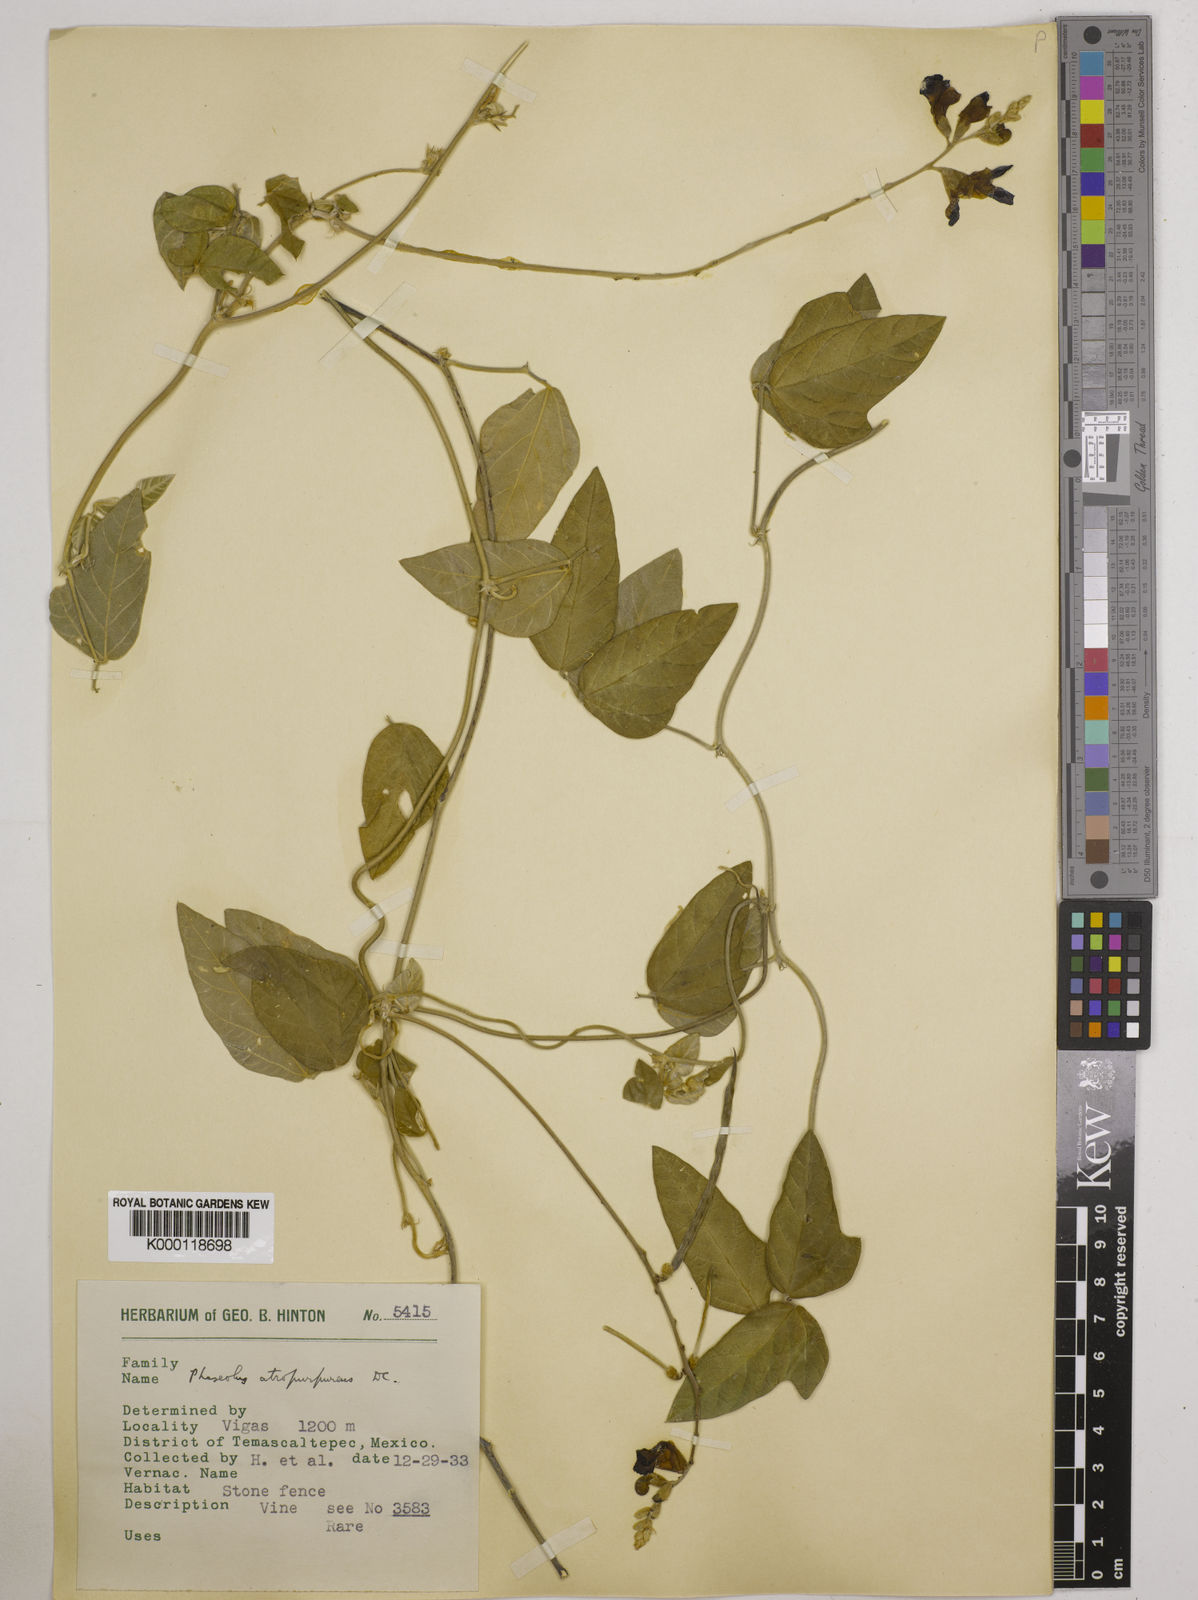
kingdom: Plantae
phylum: Tracheophyta
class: Magnoliopsida
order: Fabales
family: Fabaceae
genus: Macroptilium
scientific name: Macroptilium atropurpureum
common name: Purple bushbean
